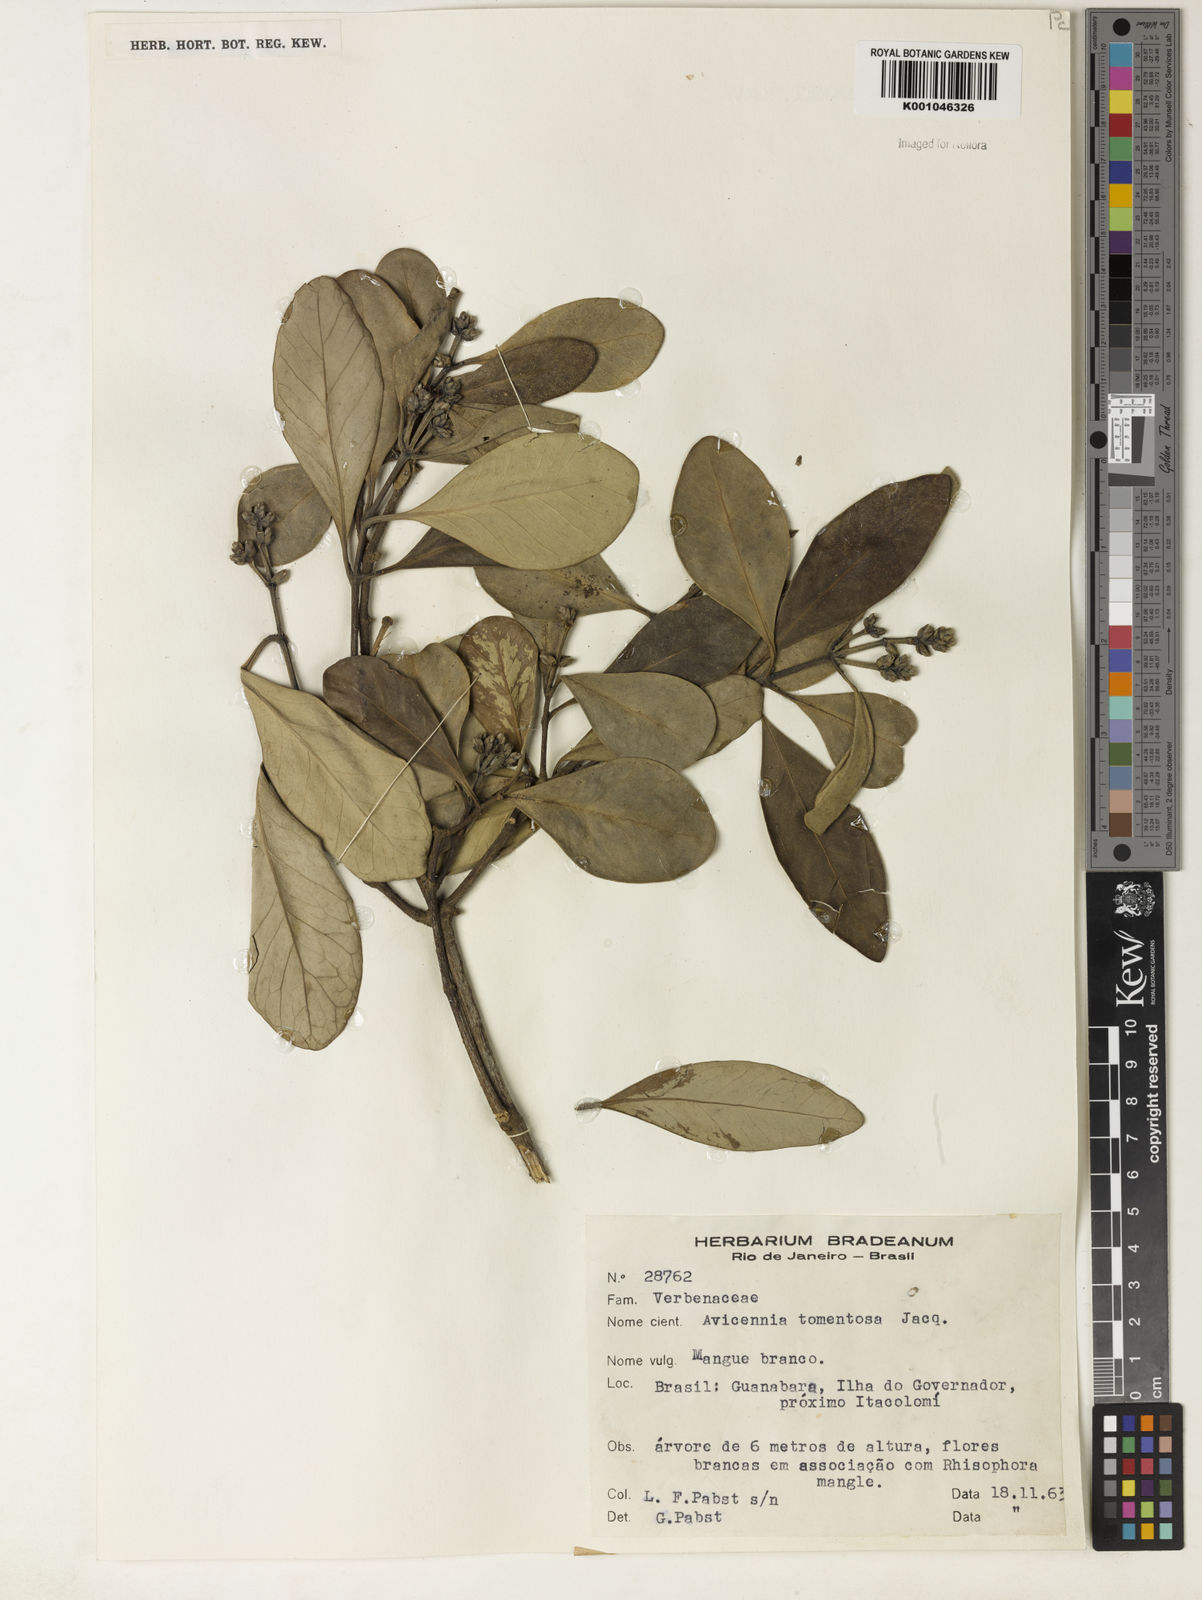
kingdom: Plantae
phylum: Tracheophyta
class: Magnoliopsida
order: Lamiales
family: Acanthaceae
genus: Avicennia
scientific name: Avicennia germinans
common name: Black mangrove
